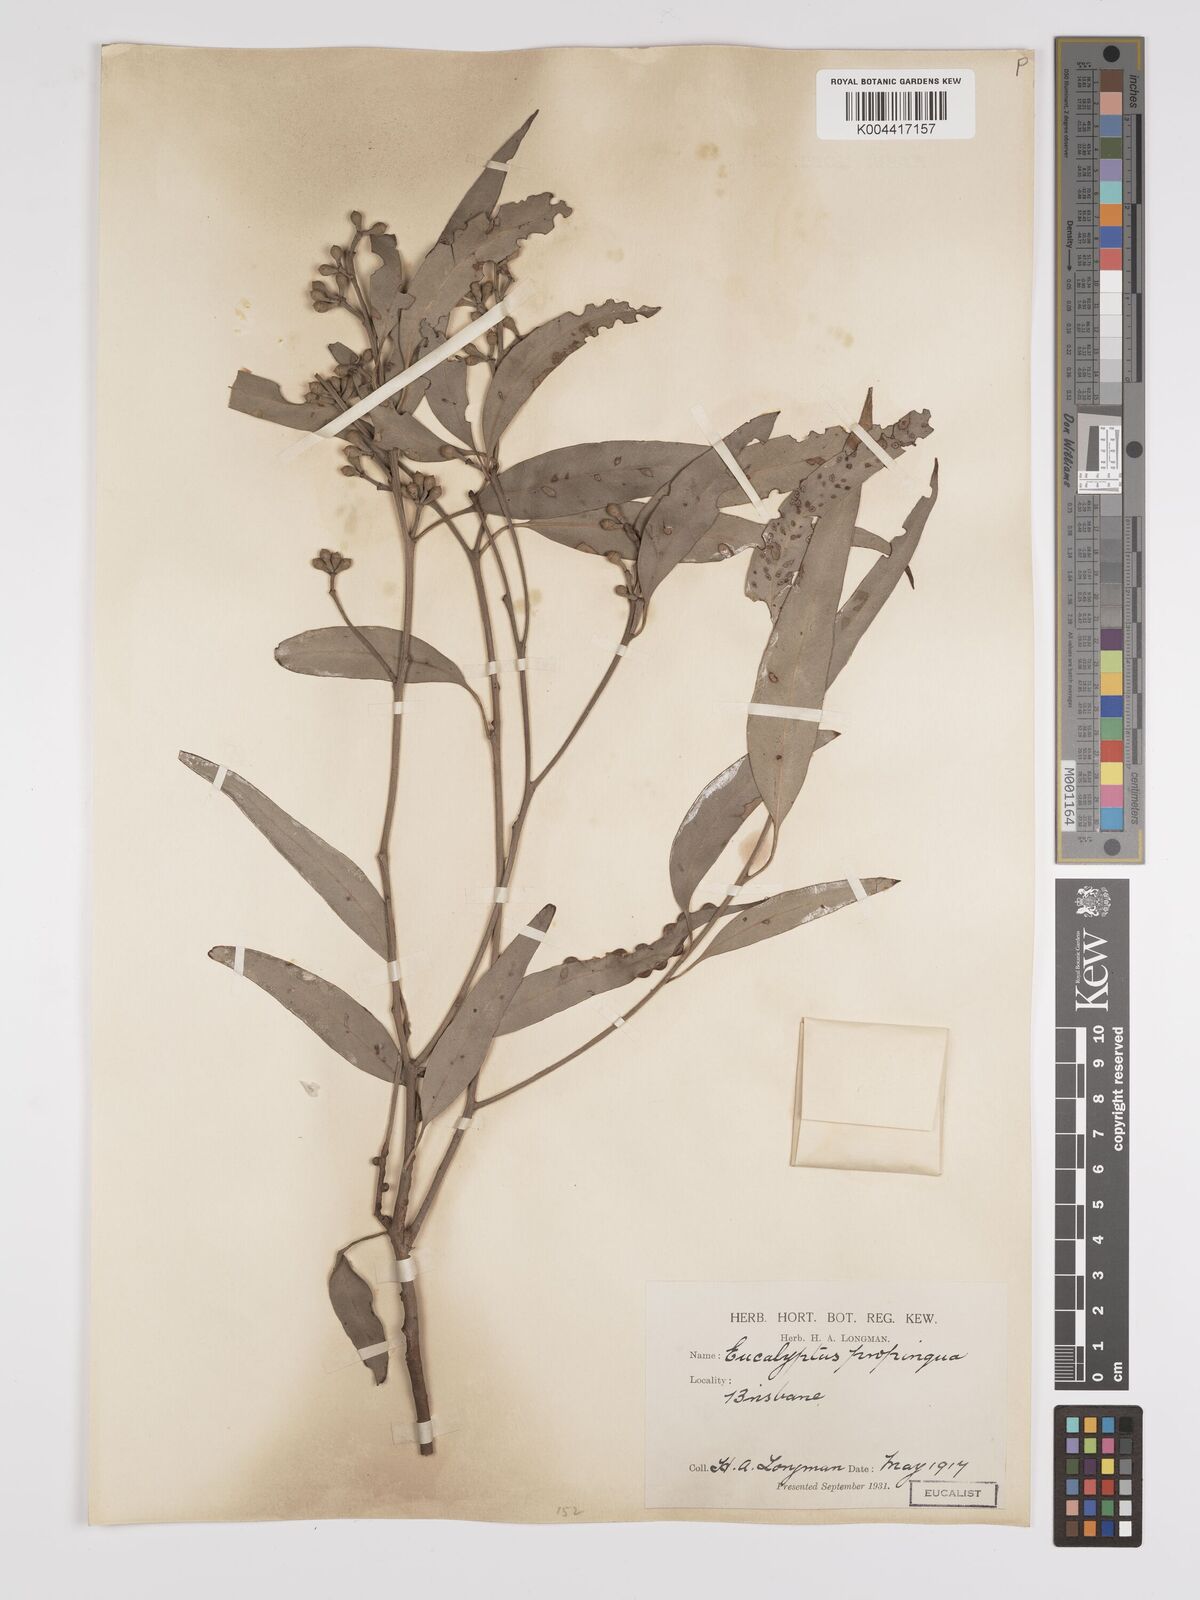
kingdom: Plantae
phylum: Tracheophyta
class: Magnoliopsida
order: Myrtales
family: Myrtaceae
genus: Eucalyptus
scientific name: Eucalyptus propinqua
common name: Grey-gum
